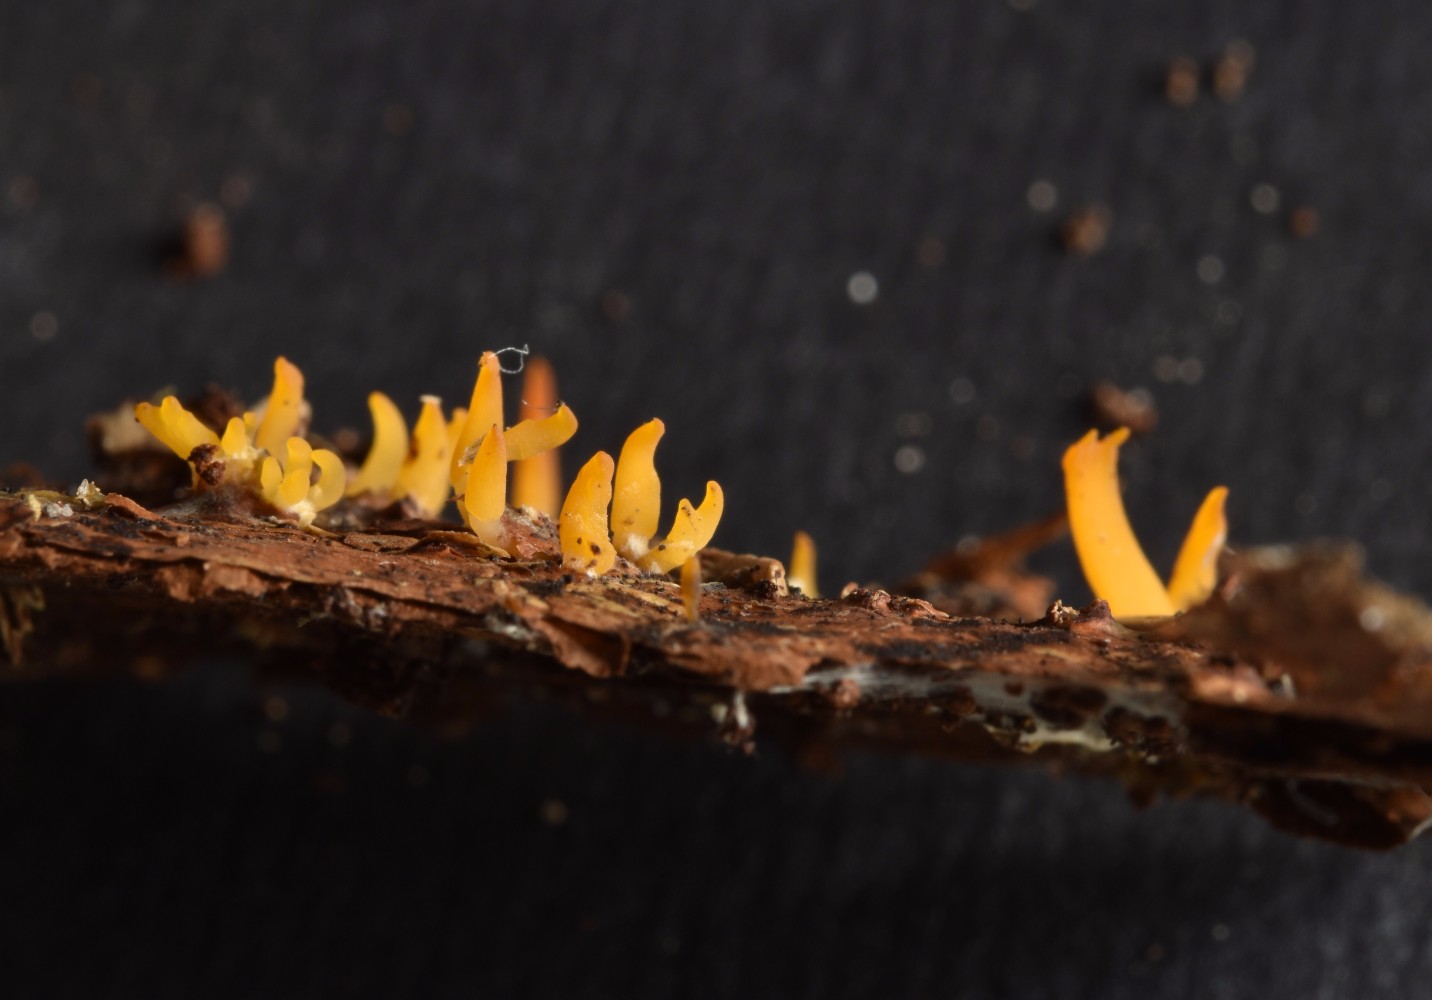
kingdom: Fungi
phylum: Basidiomycota
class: Dacrymycetes
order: Dacrymycetales
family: Dacrymycetaceae
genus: Calocera
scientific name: Calocera cornea
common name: liden guldgaffel
